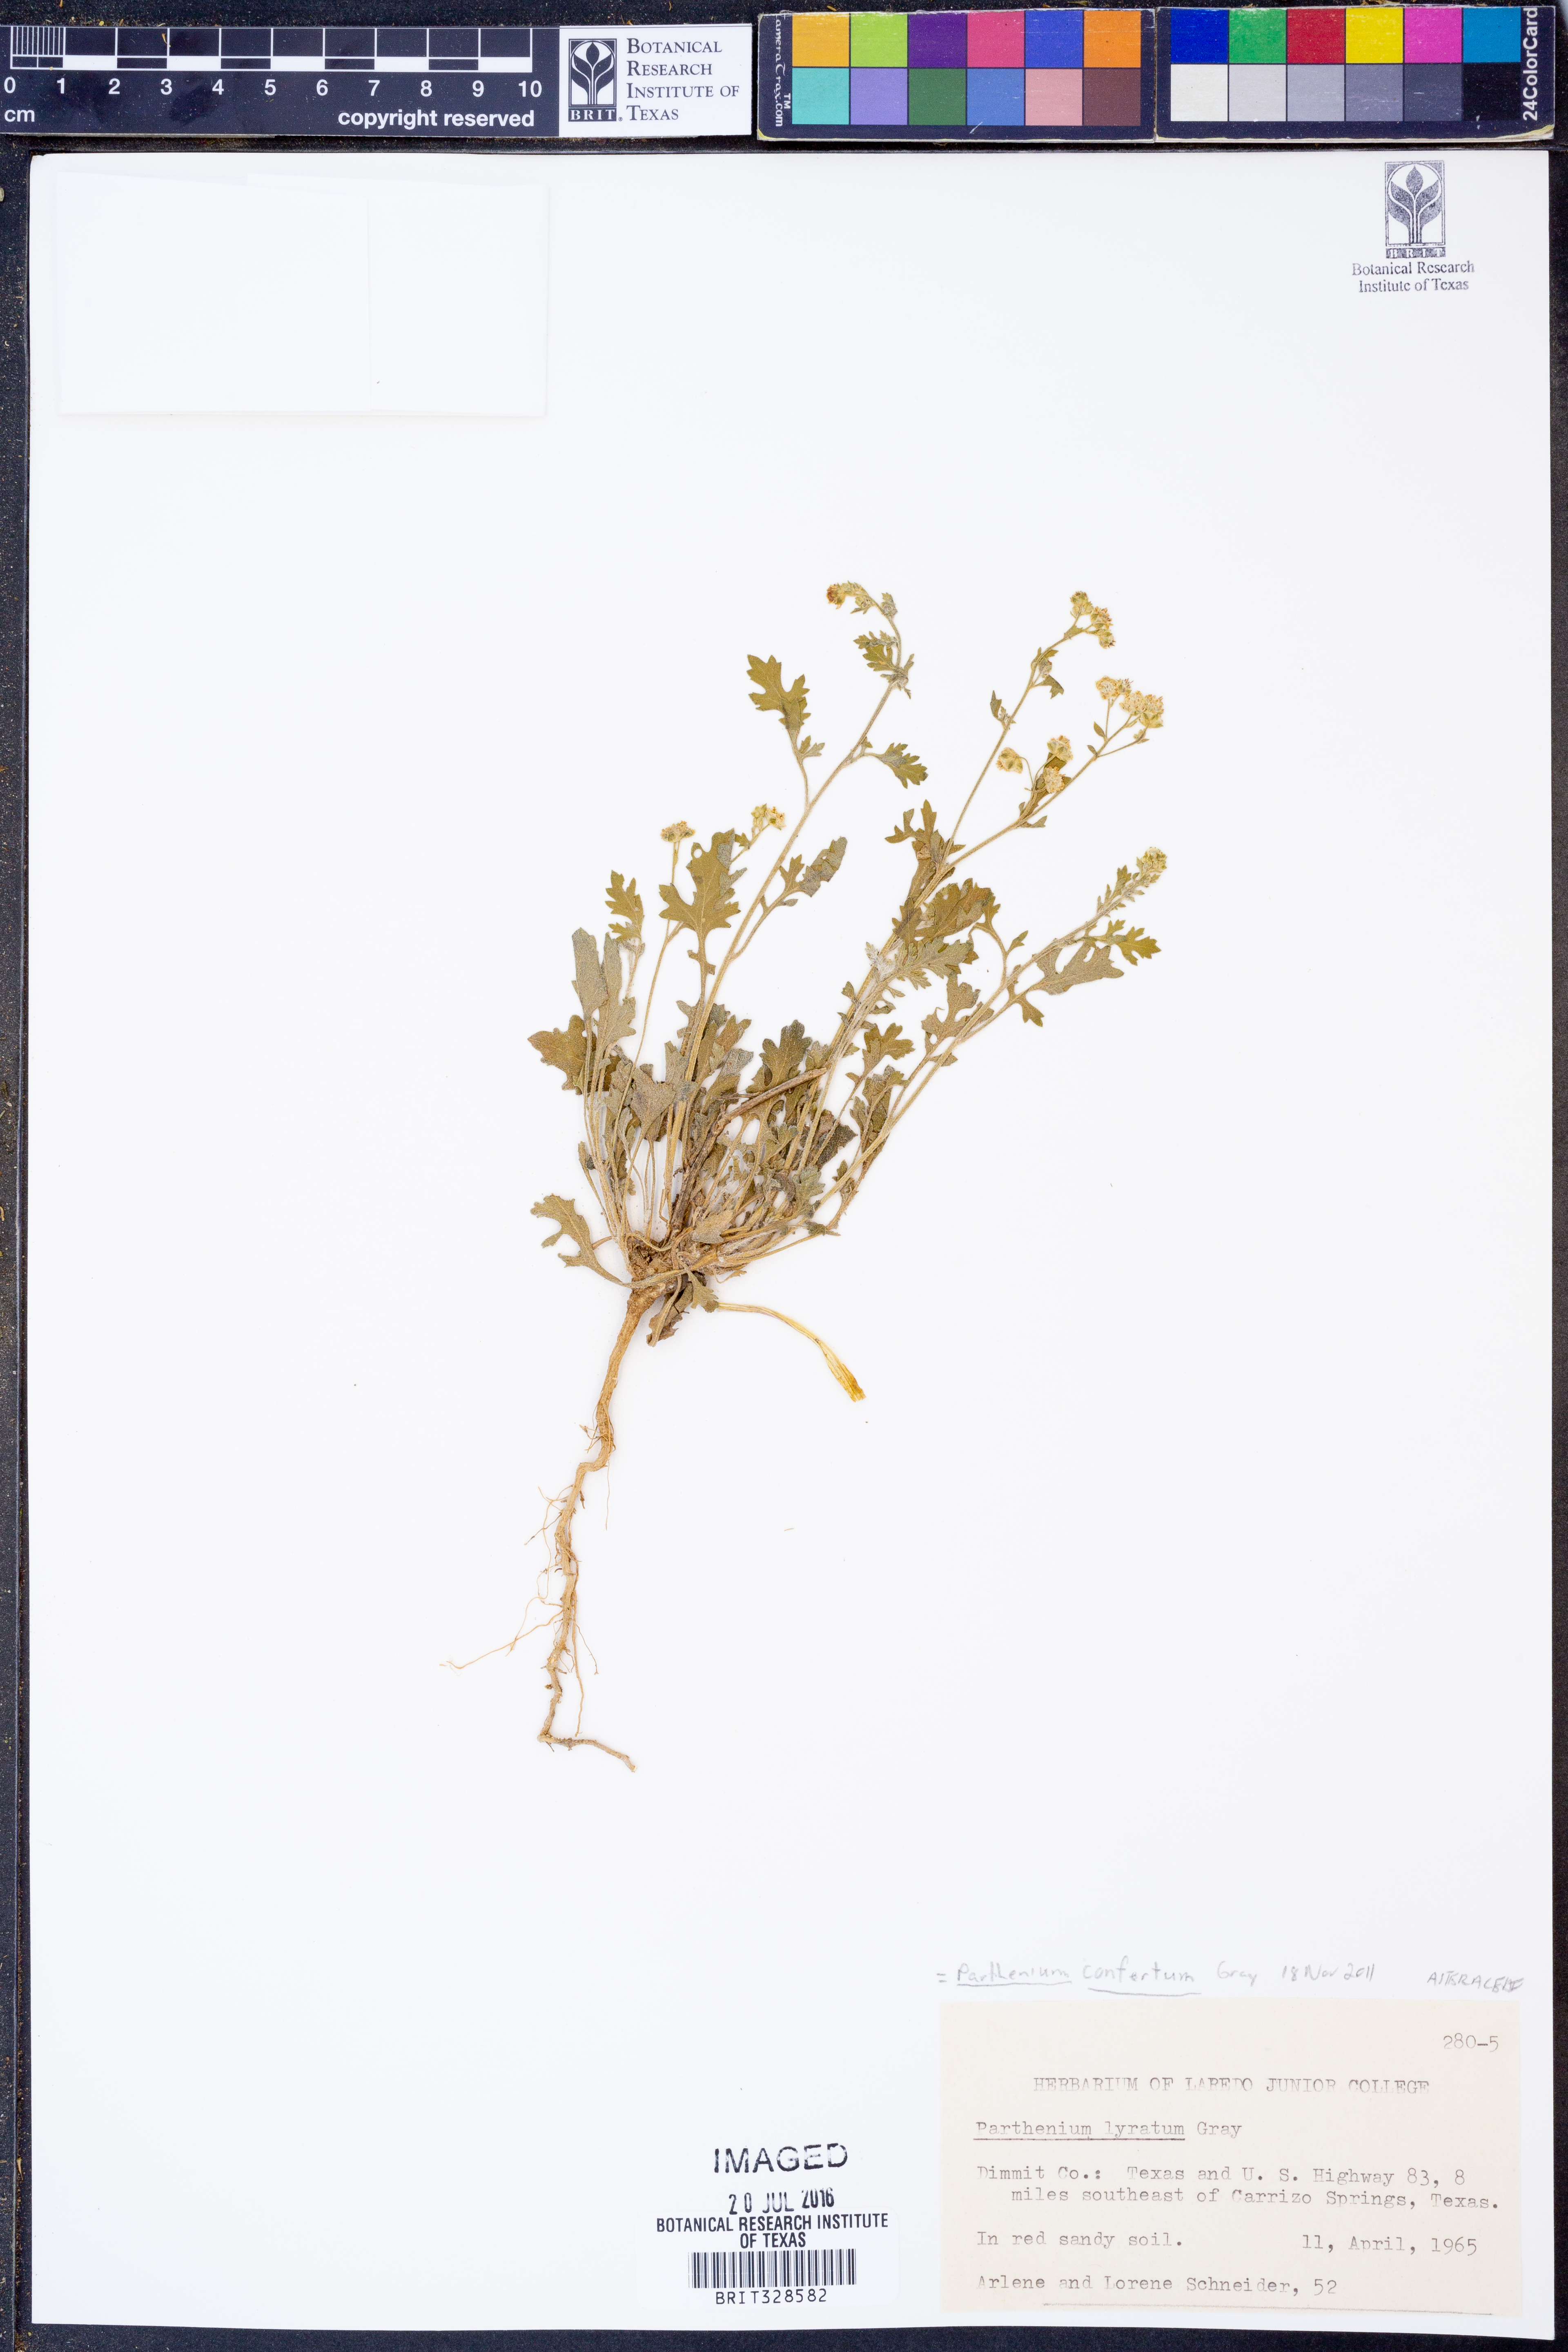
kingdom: Plantae
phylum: Tracheophyta
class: Magnoliopsida
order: Asterales
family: Asteraceae
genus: Parthenium
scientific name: Parthenium confertum
